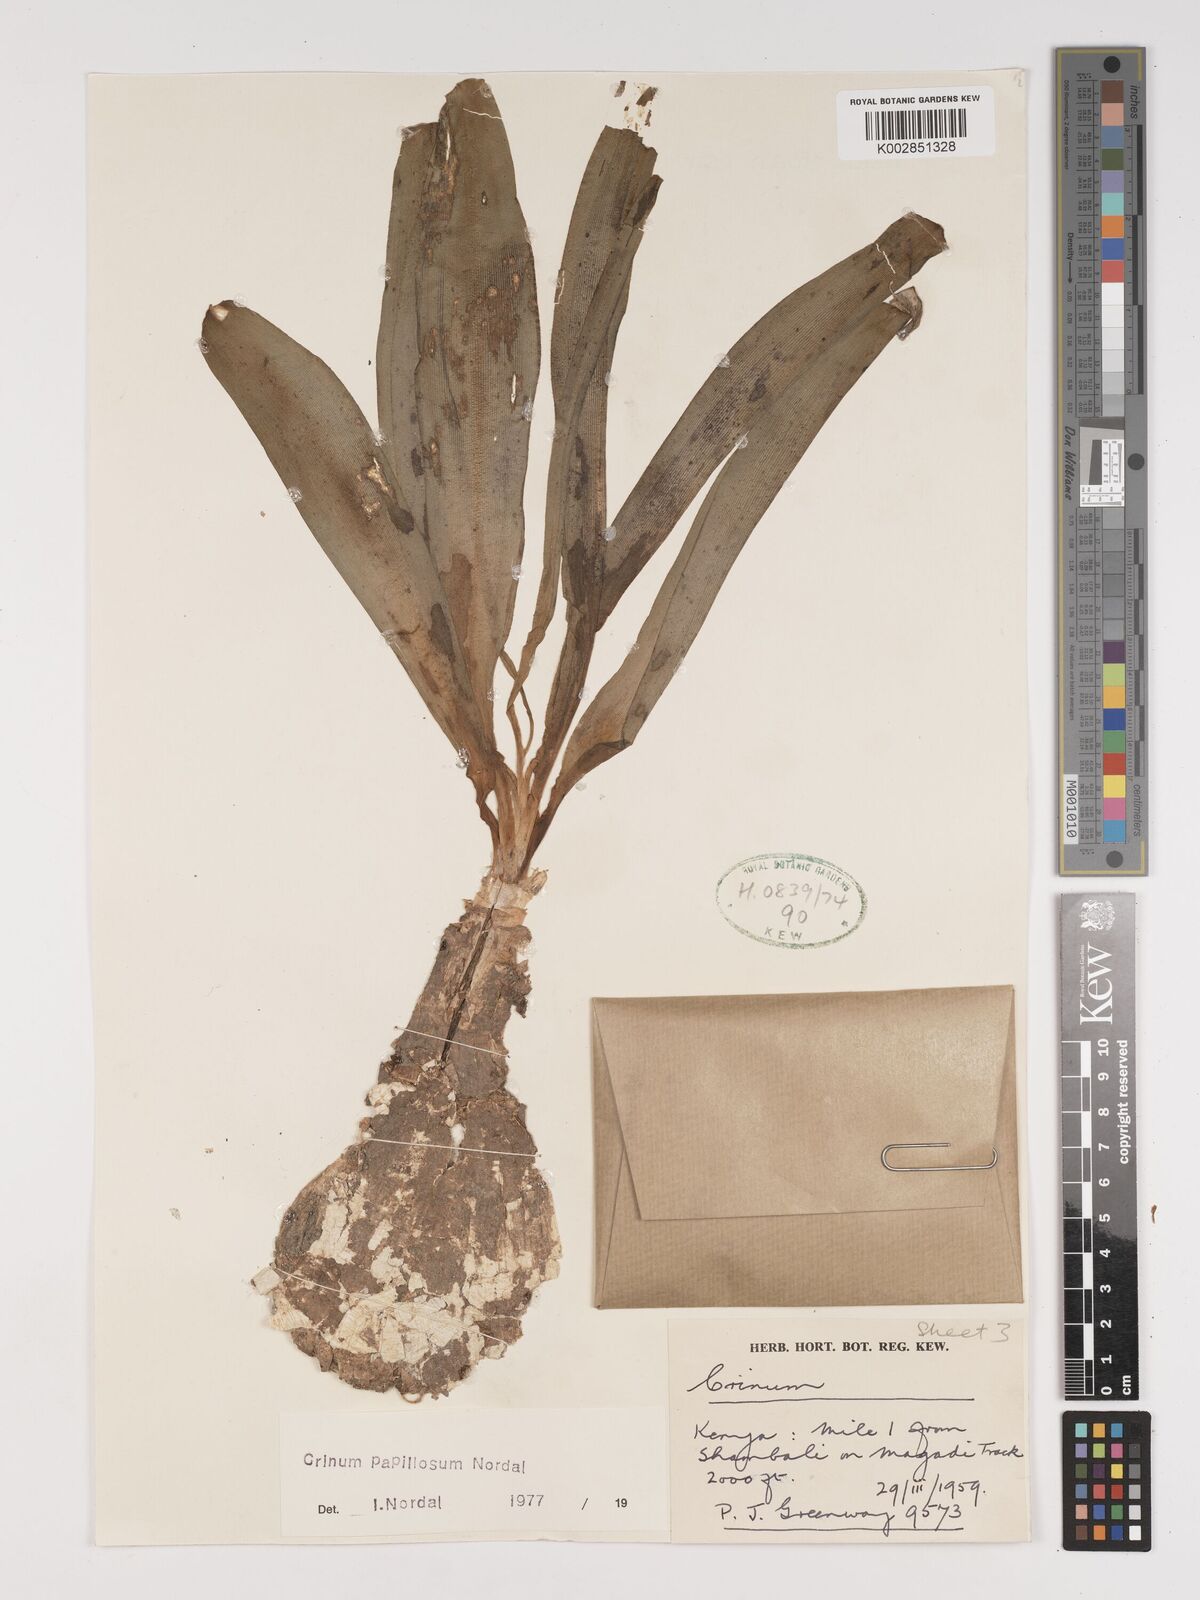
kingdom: Plantae
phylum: Tracheophyta
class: Liliopsida
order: Asparagales
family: Amaryllidaceae
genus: Crinum
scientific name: Crinum papillosum
